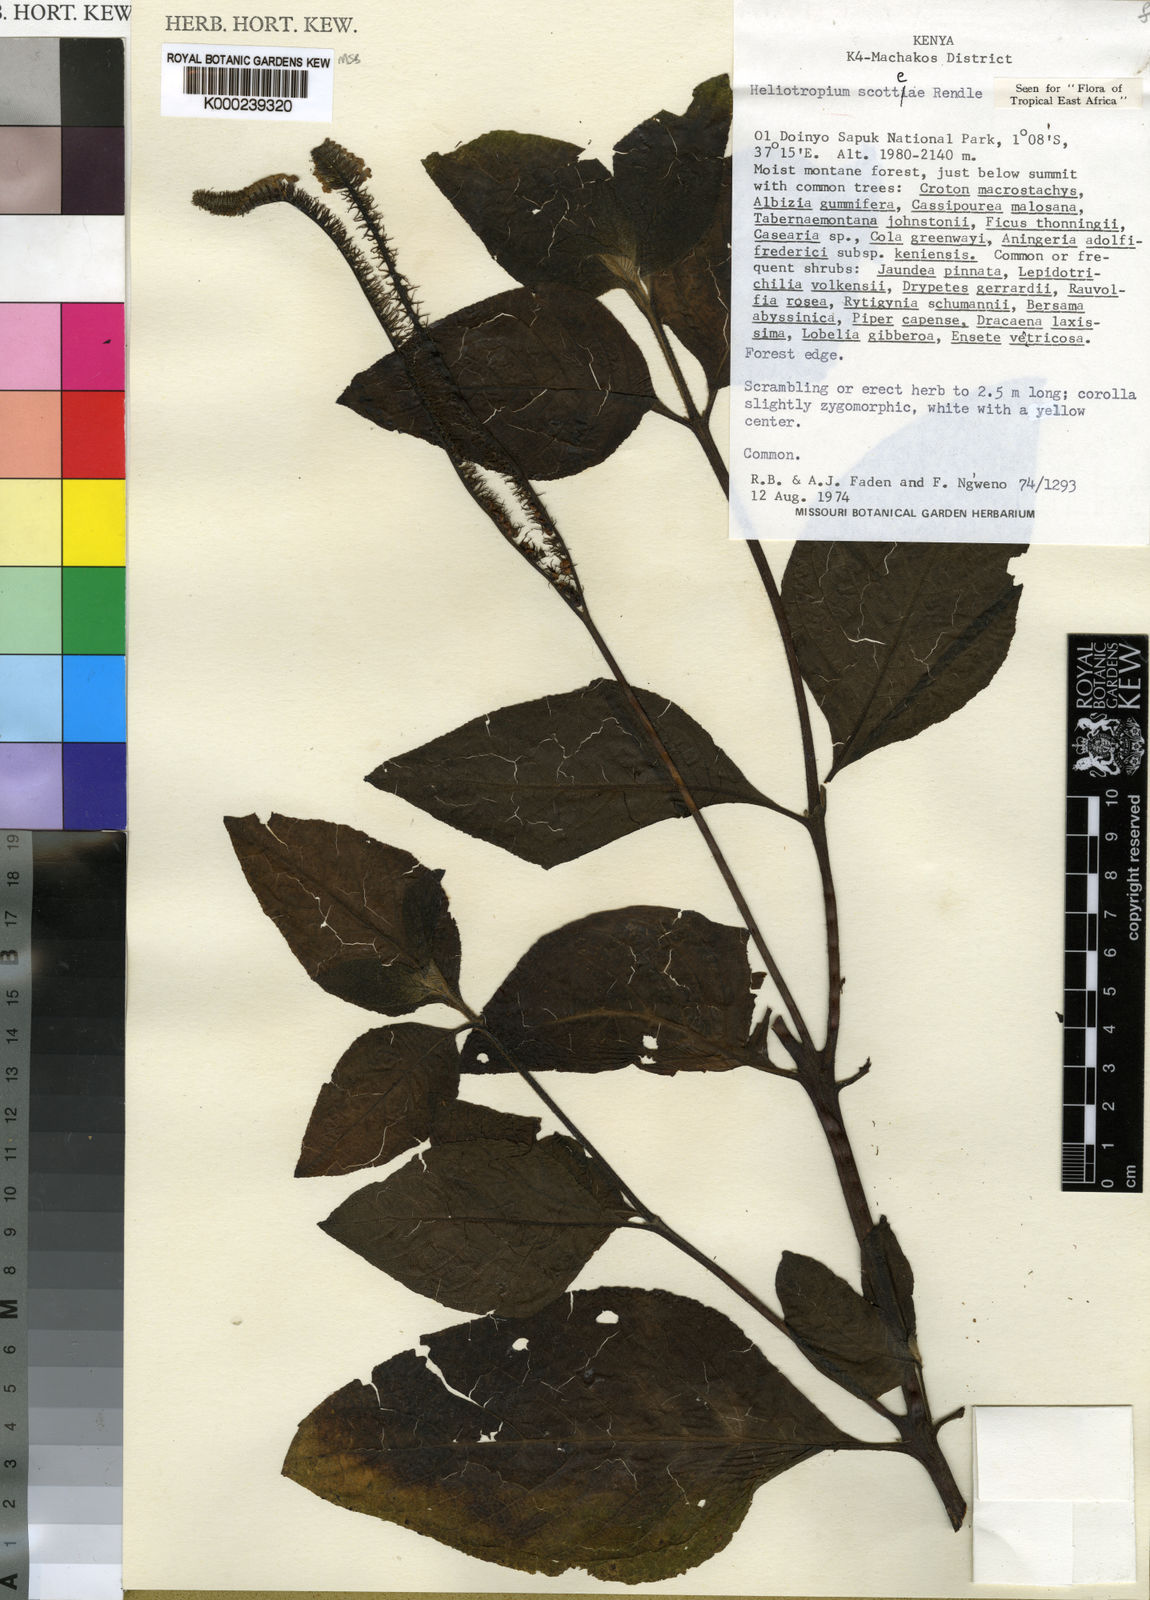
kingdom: Plantae
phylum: Tracheophyta
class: Magnoliopsida
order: Boraginales
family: Heliotropiaceae
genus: Heliotropium
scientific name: Heliotropium scotteae
